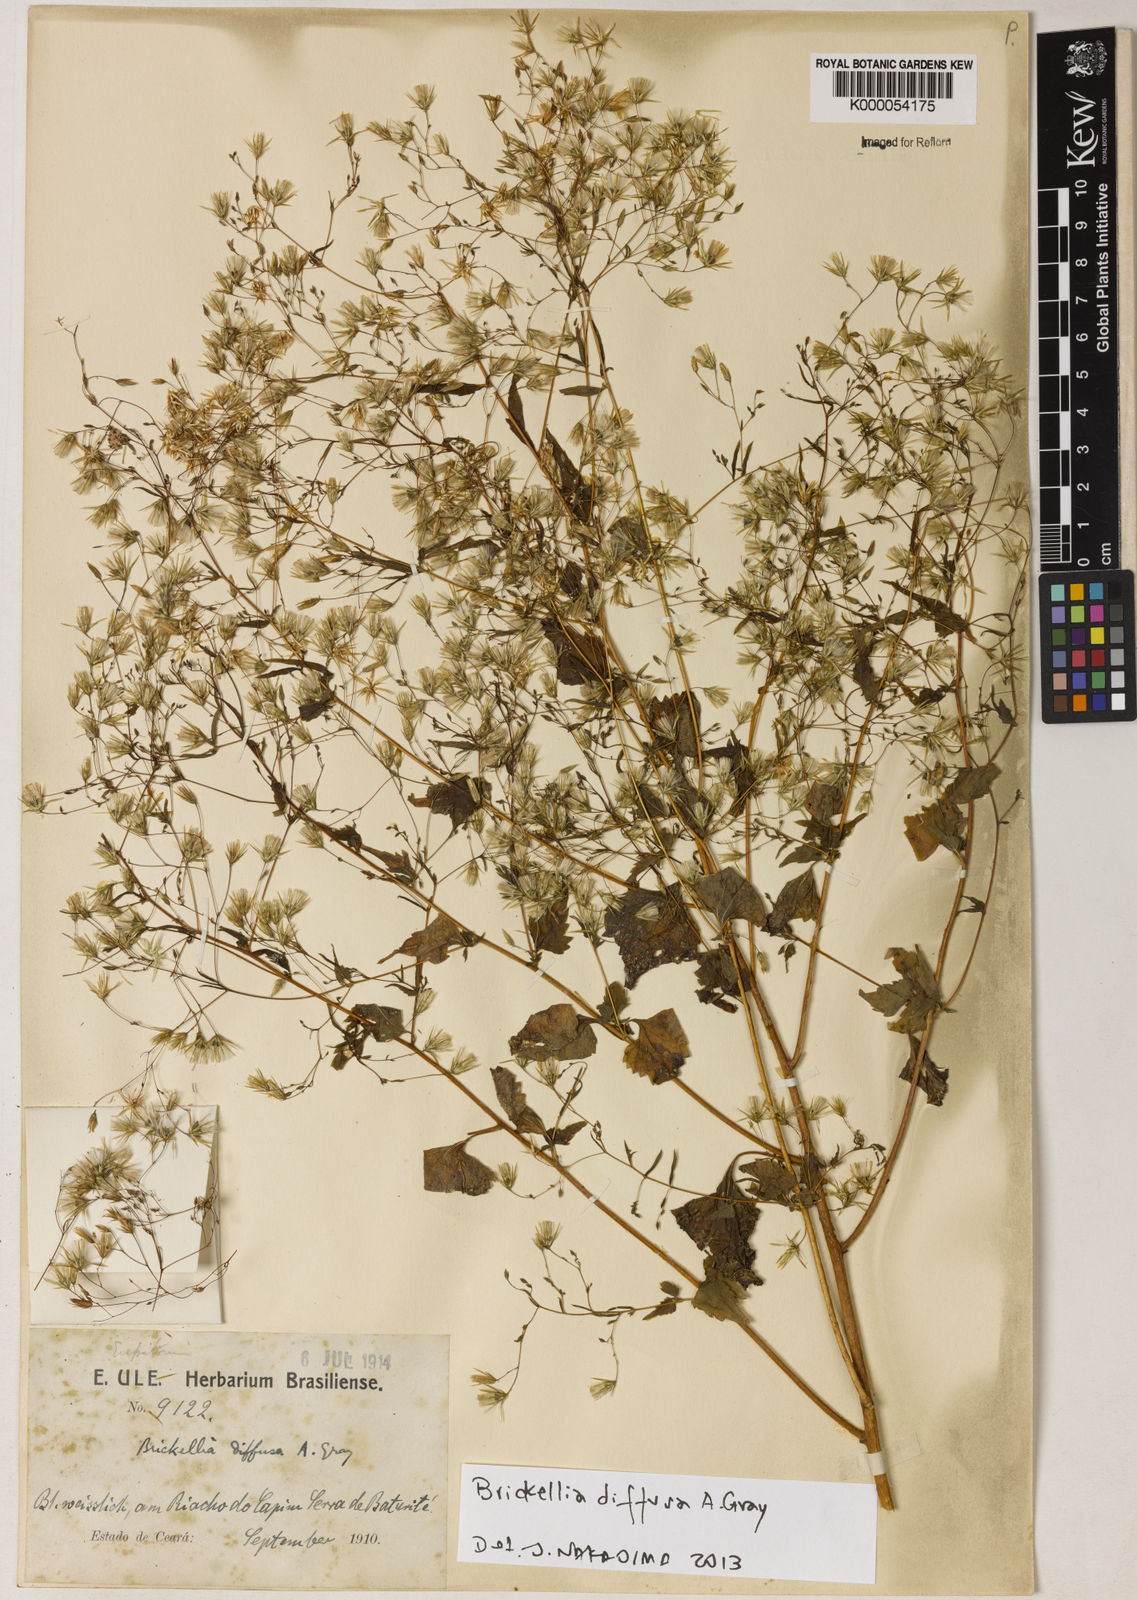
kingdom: Plantae
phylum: Tracheophyta
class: Magnoliopsida
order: Asterales
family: Asteraceae
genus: Brickellia
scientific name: Brickellia diffusa
